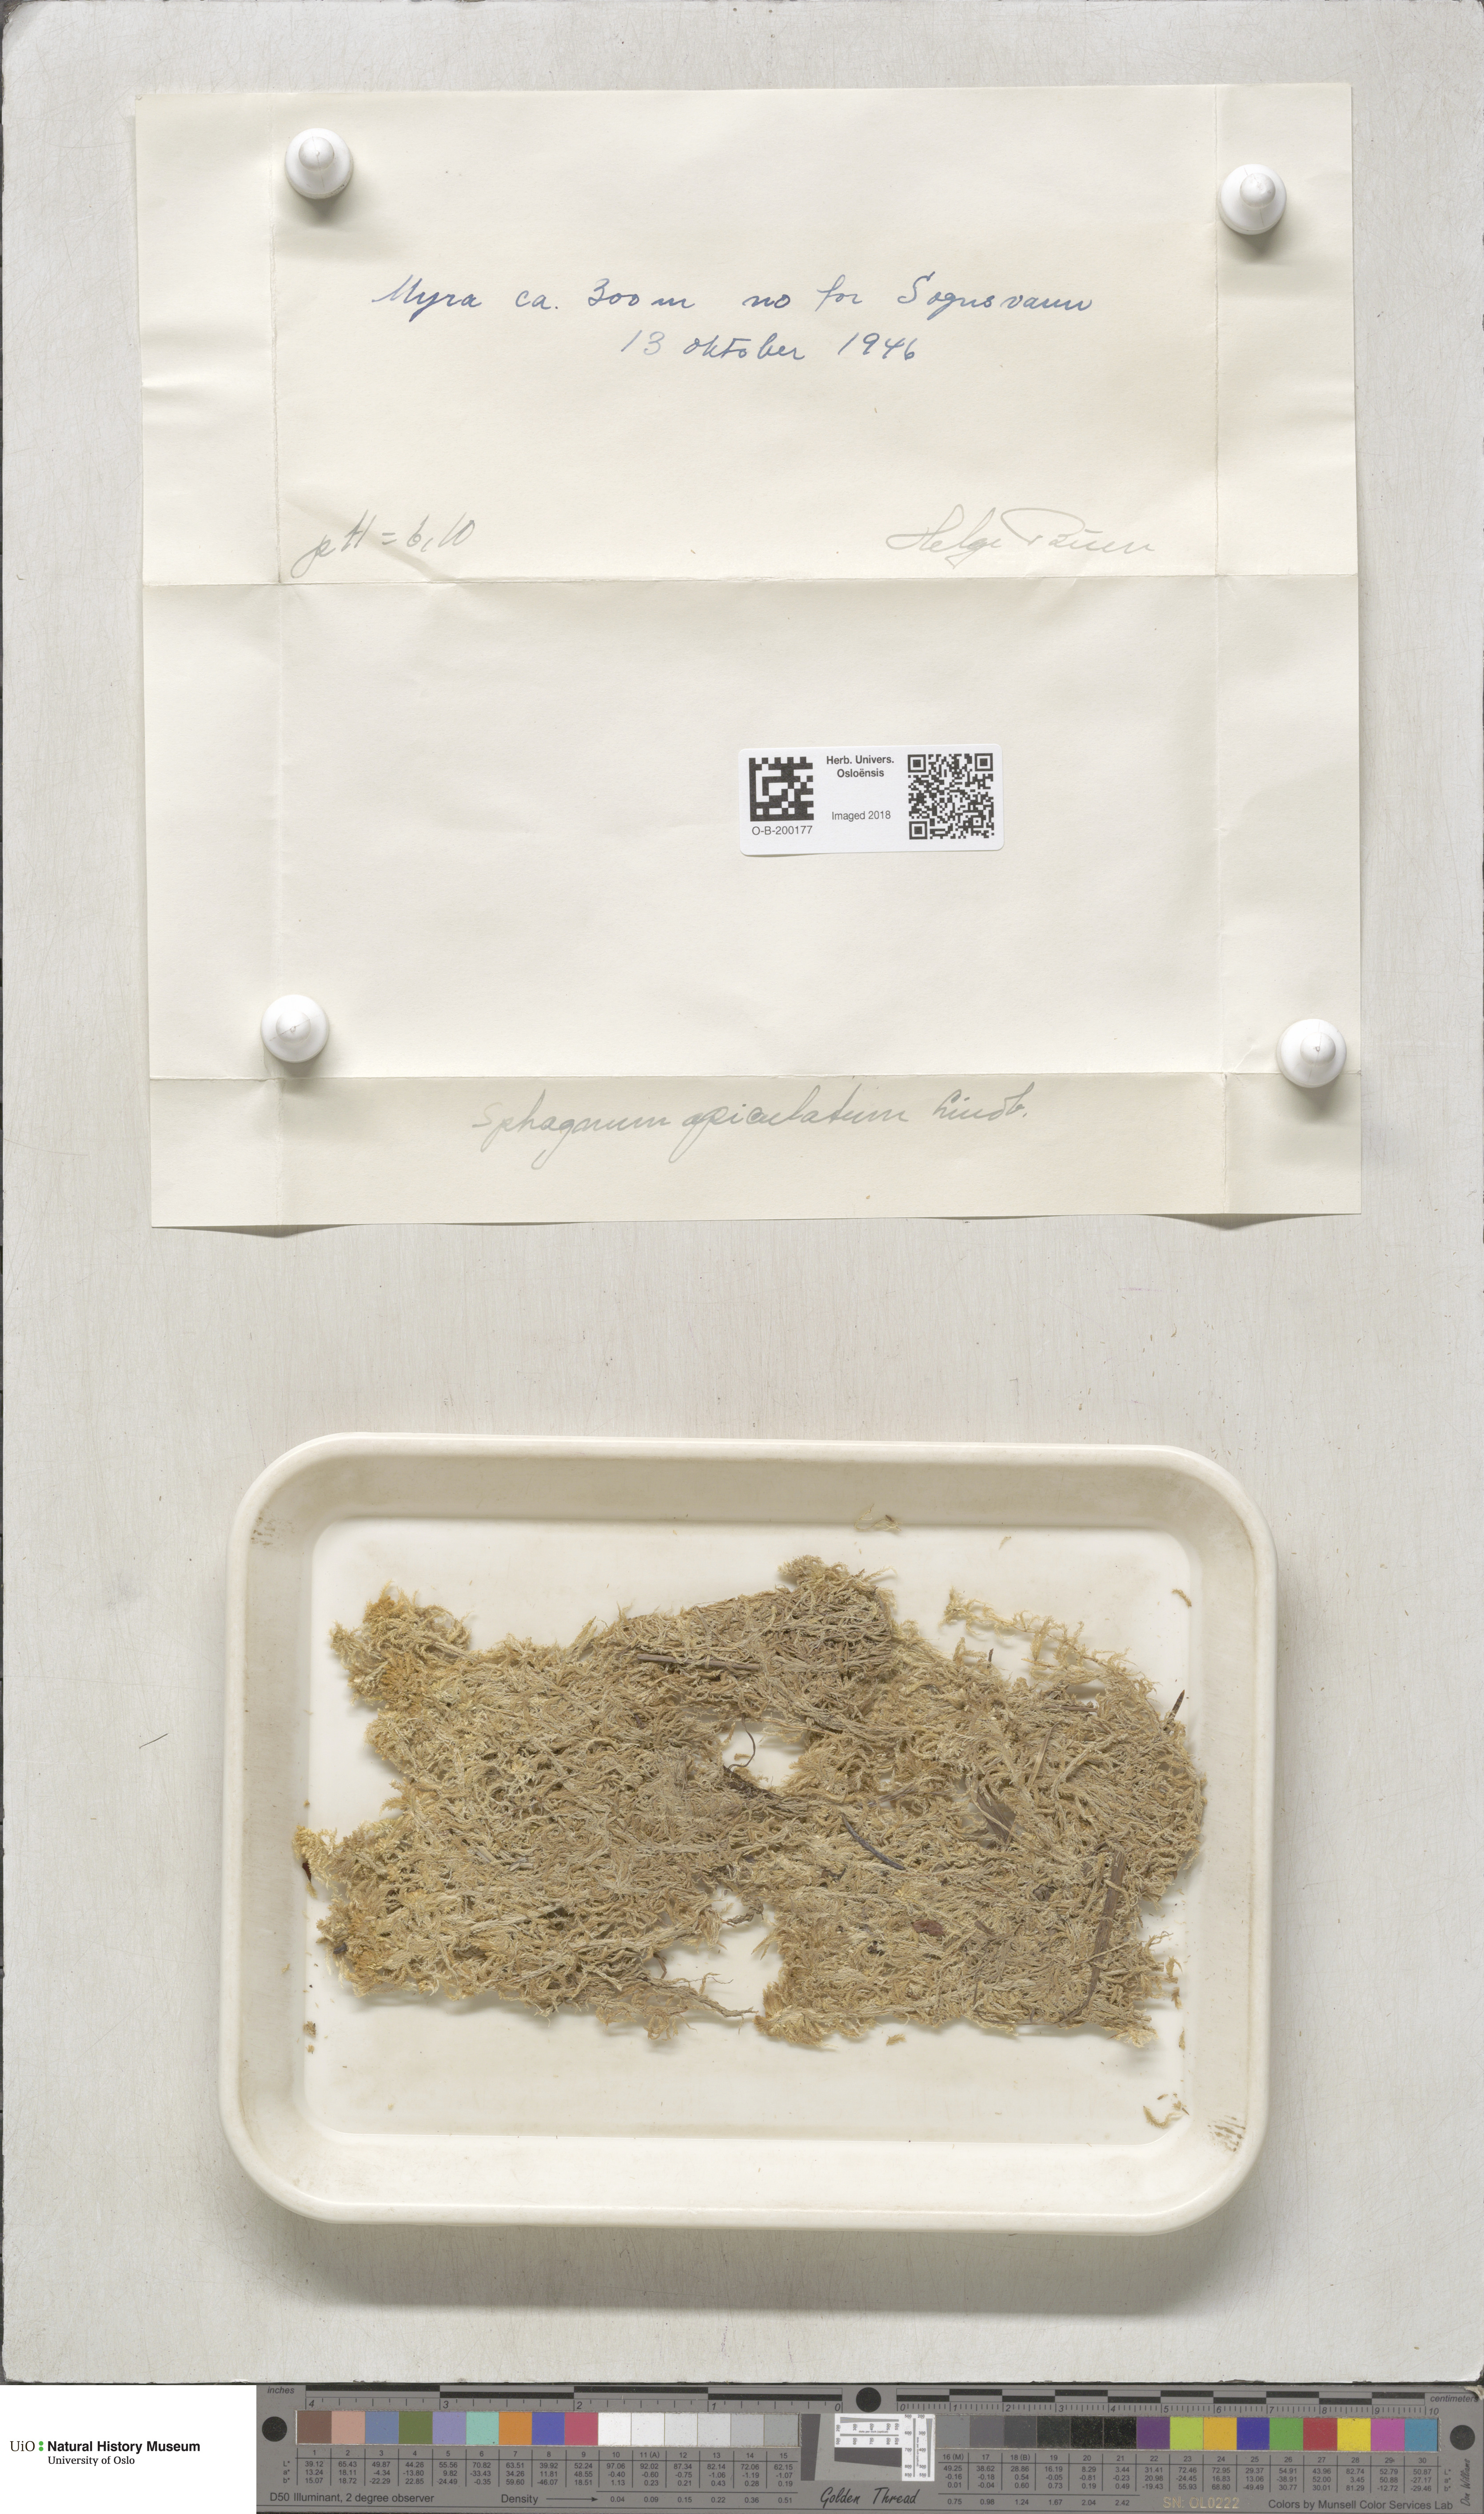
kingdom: Plantae
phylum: Bryophyta
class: Sphagnopsida
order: Sphagnales
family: Sphagnaceae
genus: Sphagnum
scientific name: Sphagnum fallax
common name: Flat-top peat moss
